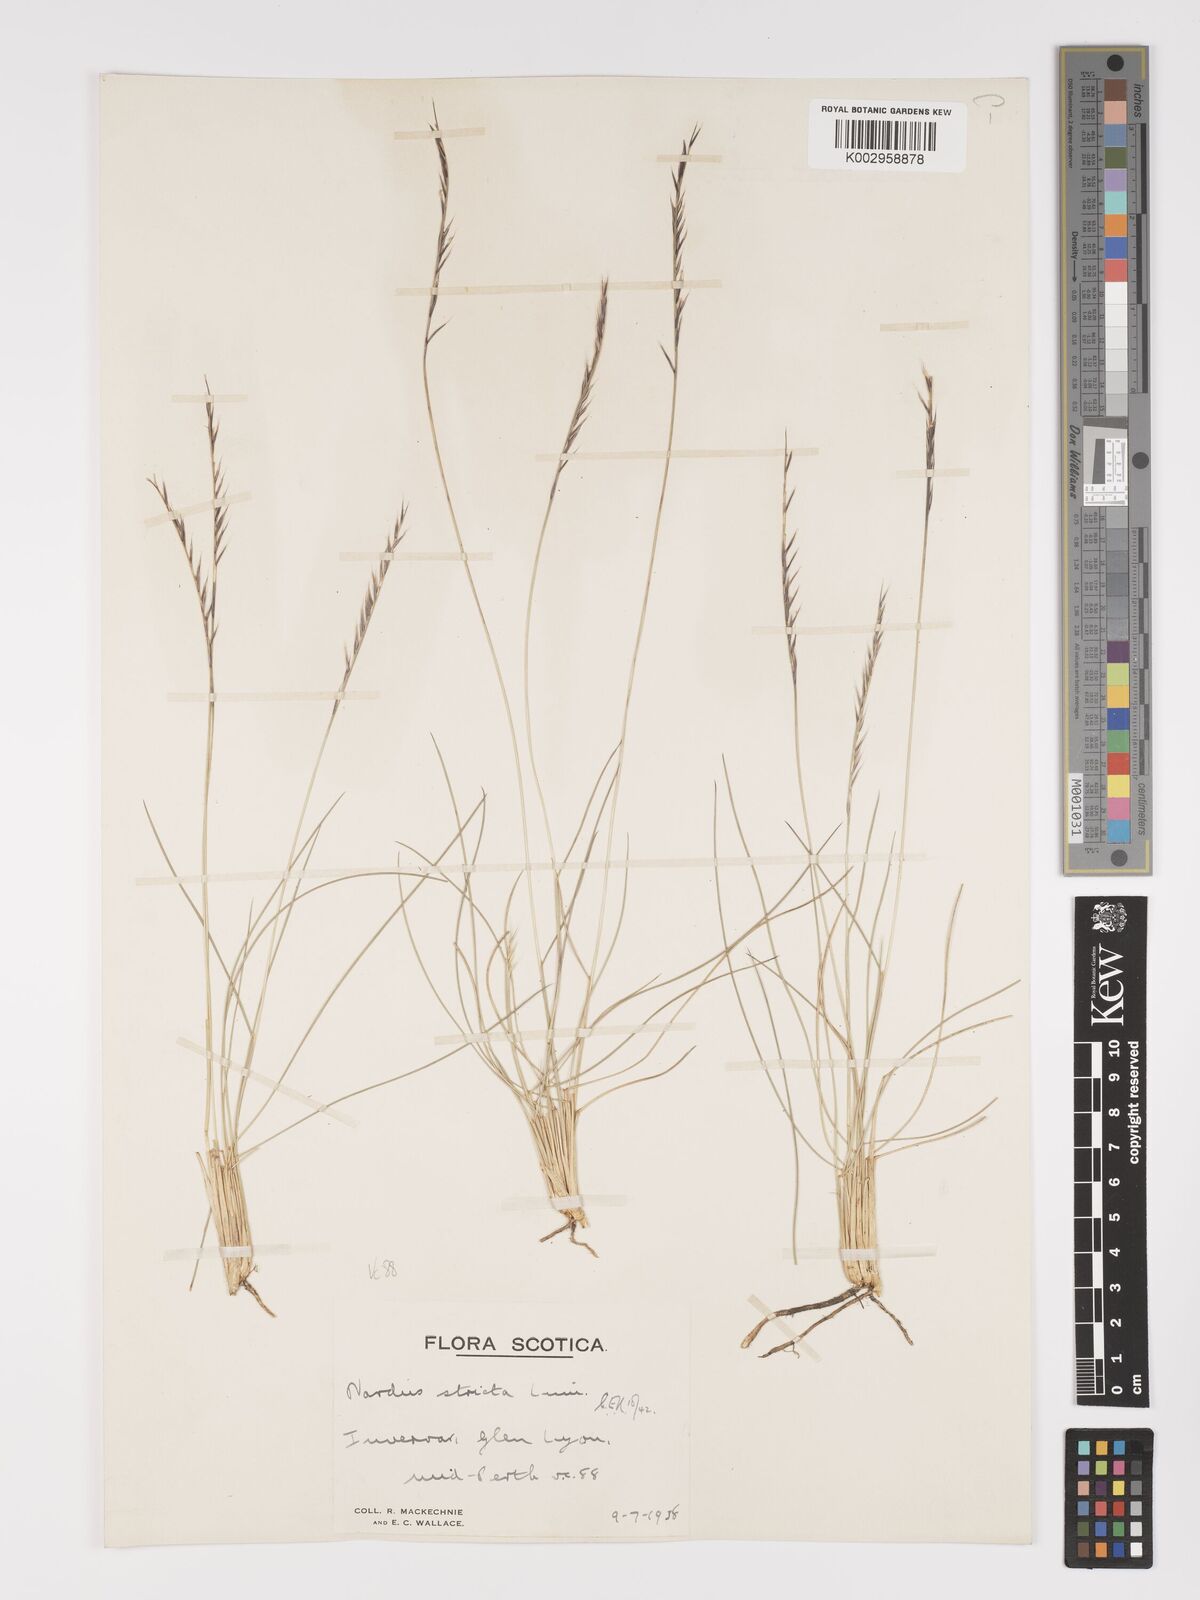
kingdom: Plantae
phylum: Tracheophyta
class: Liliopsida
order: Poales
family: Poaceae
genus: Nardus
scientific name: Nardus stricta
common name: Mat-grass
